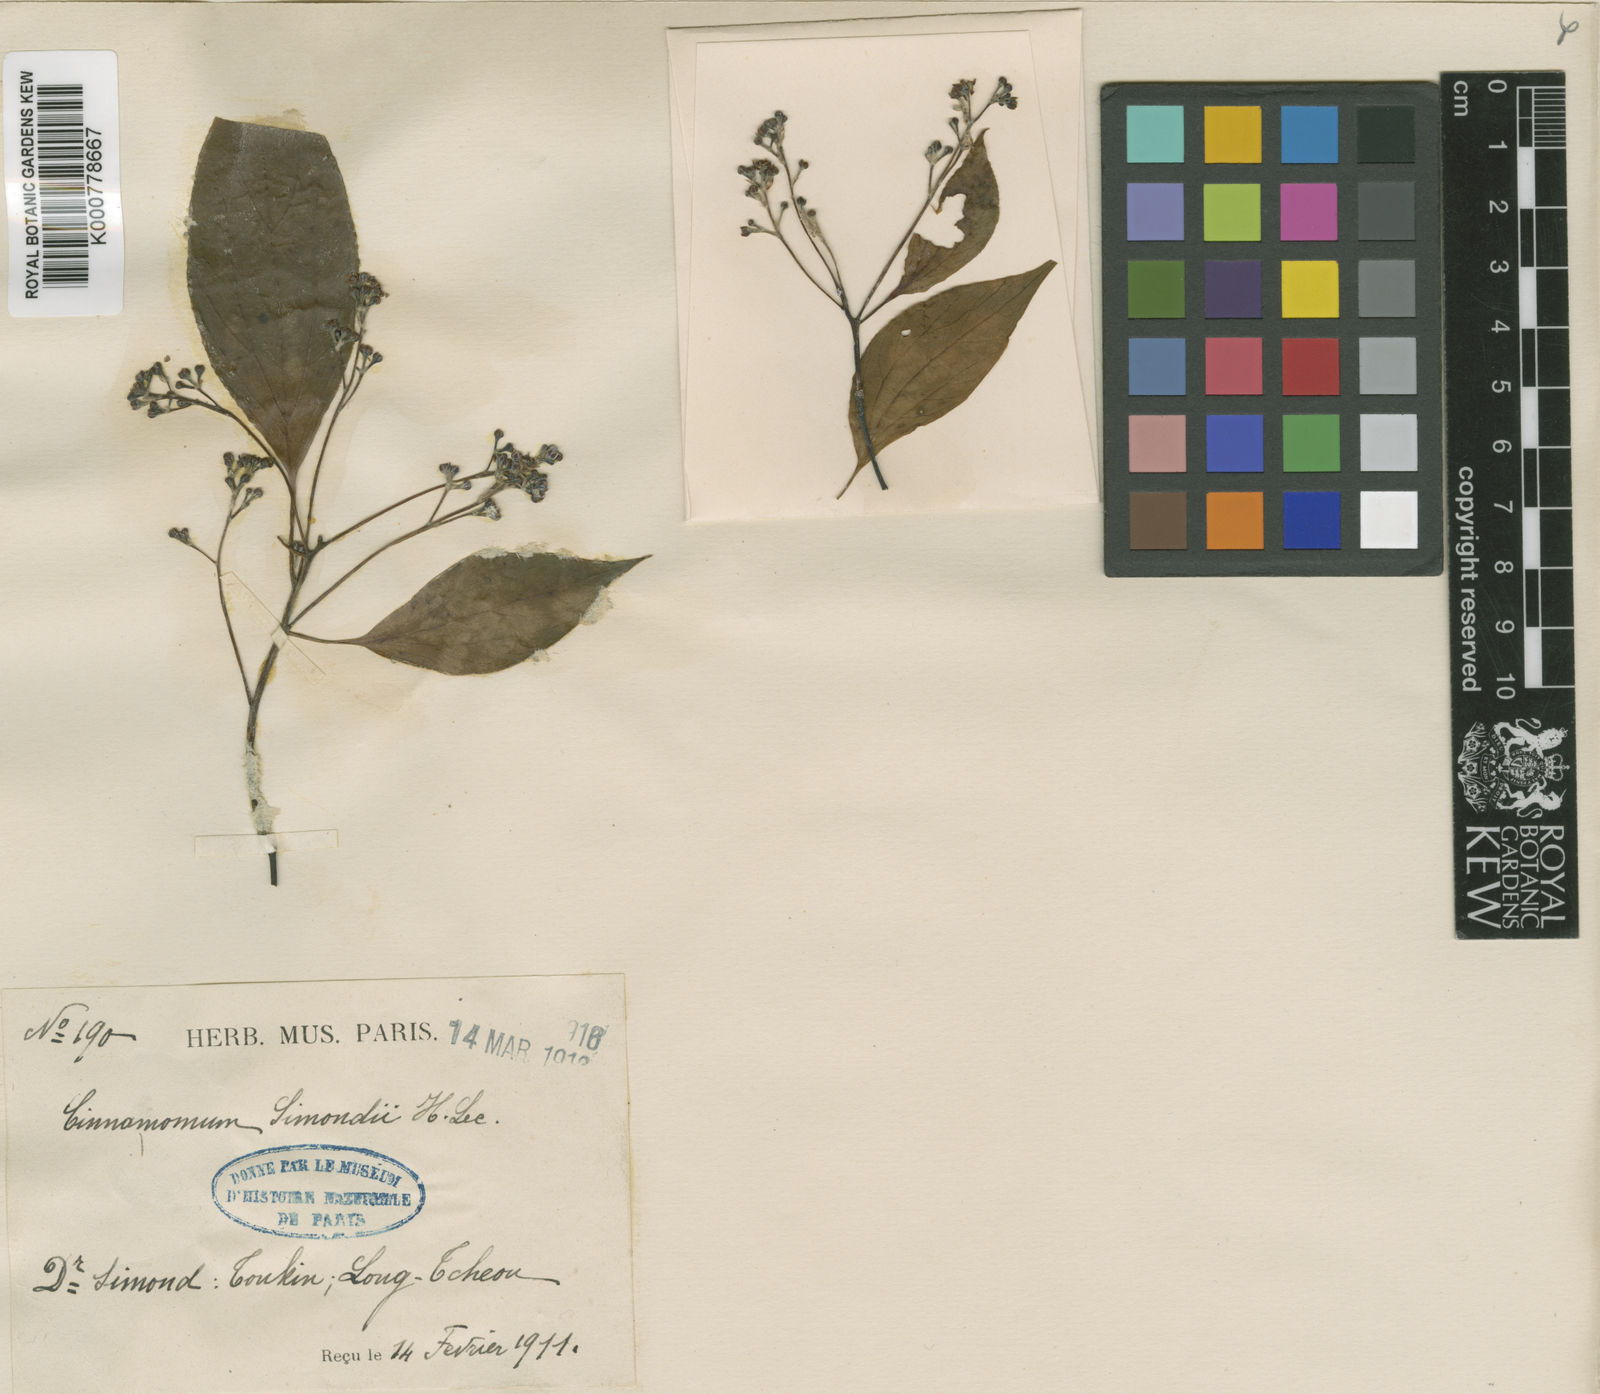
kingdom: Plantae
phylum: Tracheophyta
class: Magnoliopsida
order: Laurales
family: Lauraceae
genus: Cinnamomum
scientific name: Cinnamomum camphora
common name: Camphortree
